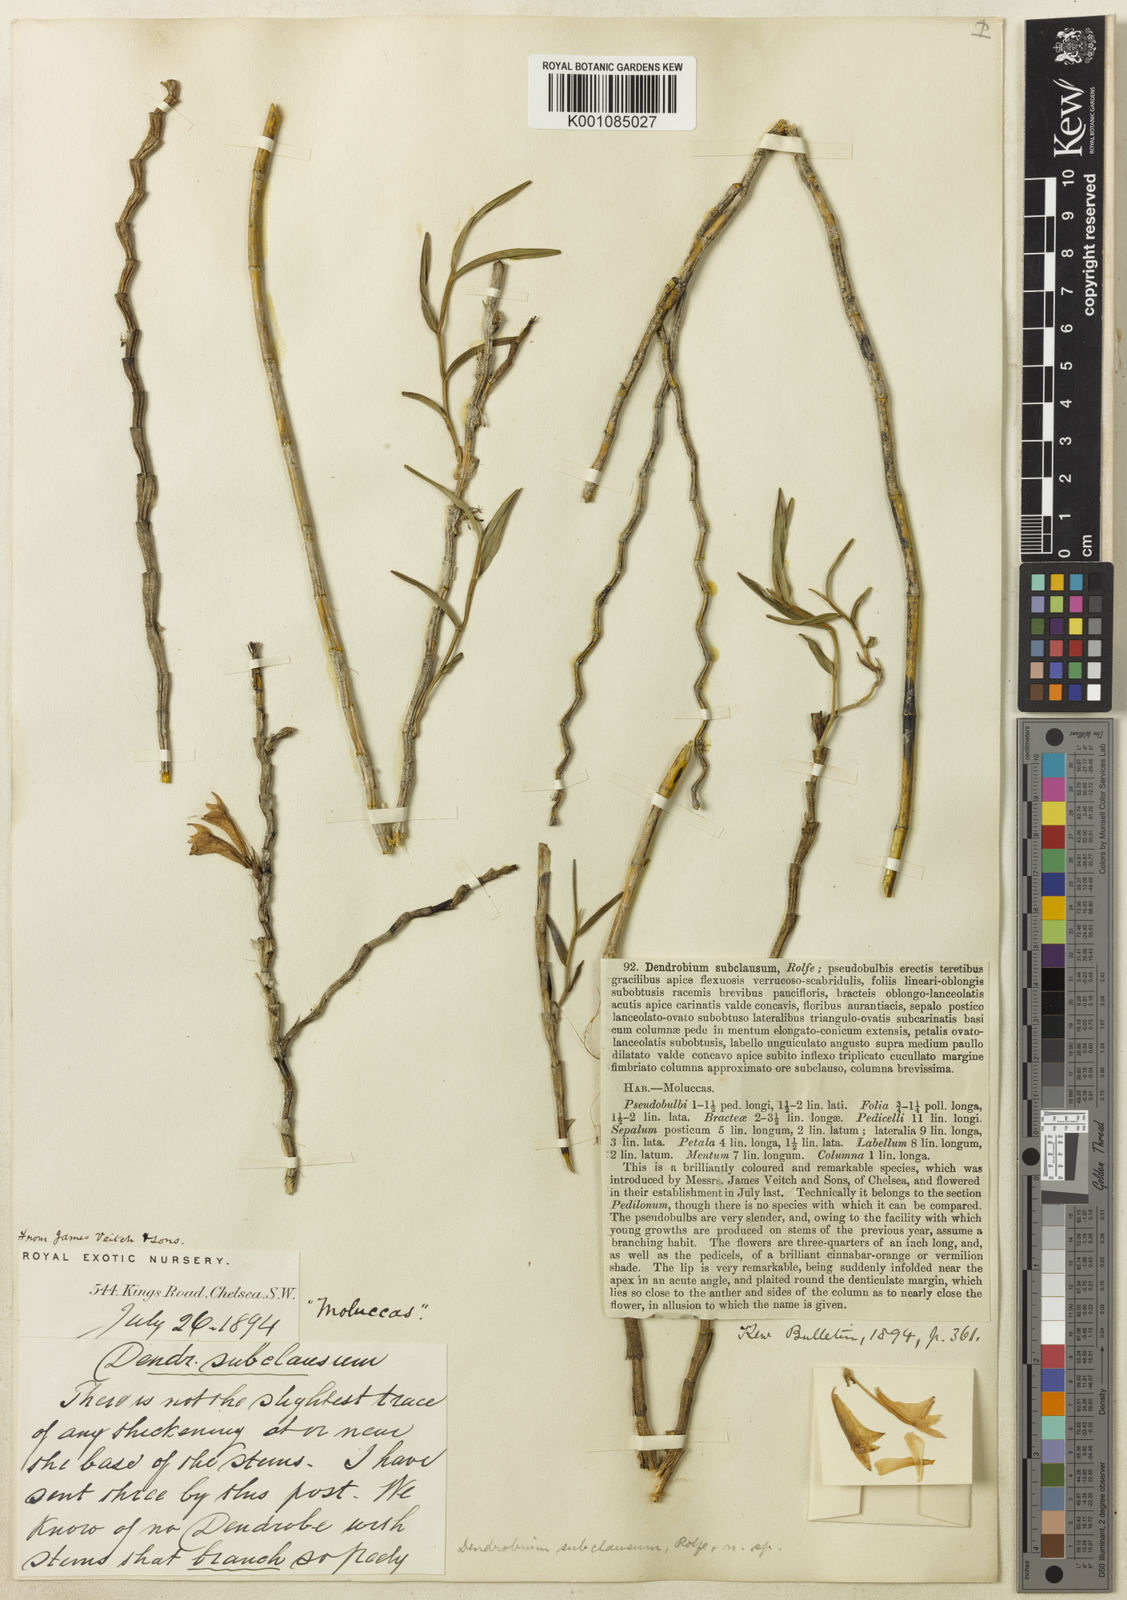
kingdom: Plantae
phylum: Tracheophyta
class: Liliopsida
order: Asparagales
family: Orchidaceae
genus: Dendrobium
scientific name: Dendrobium subclausum
